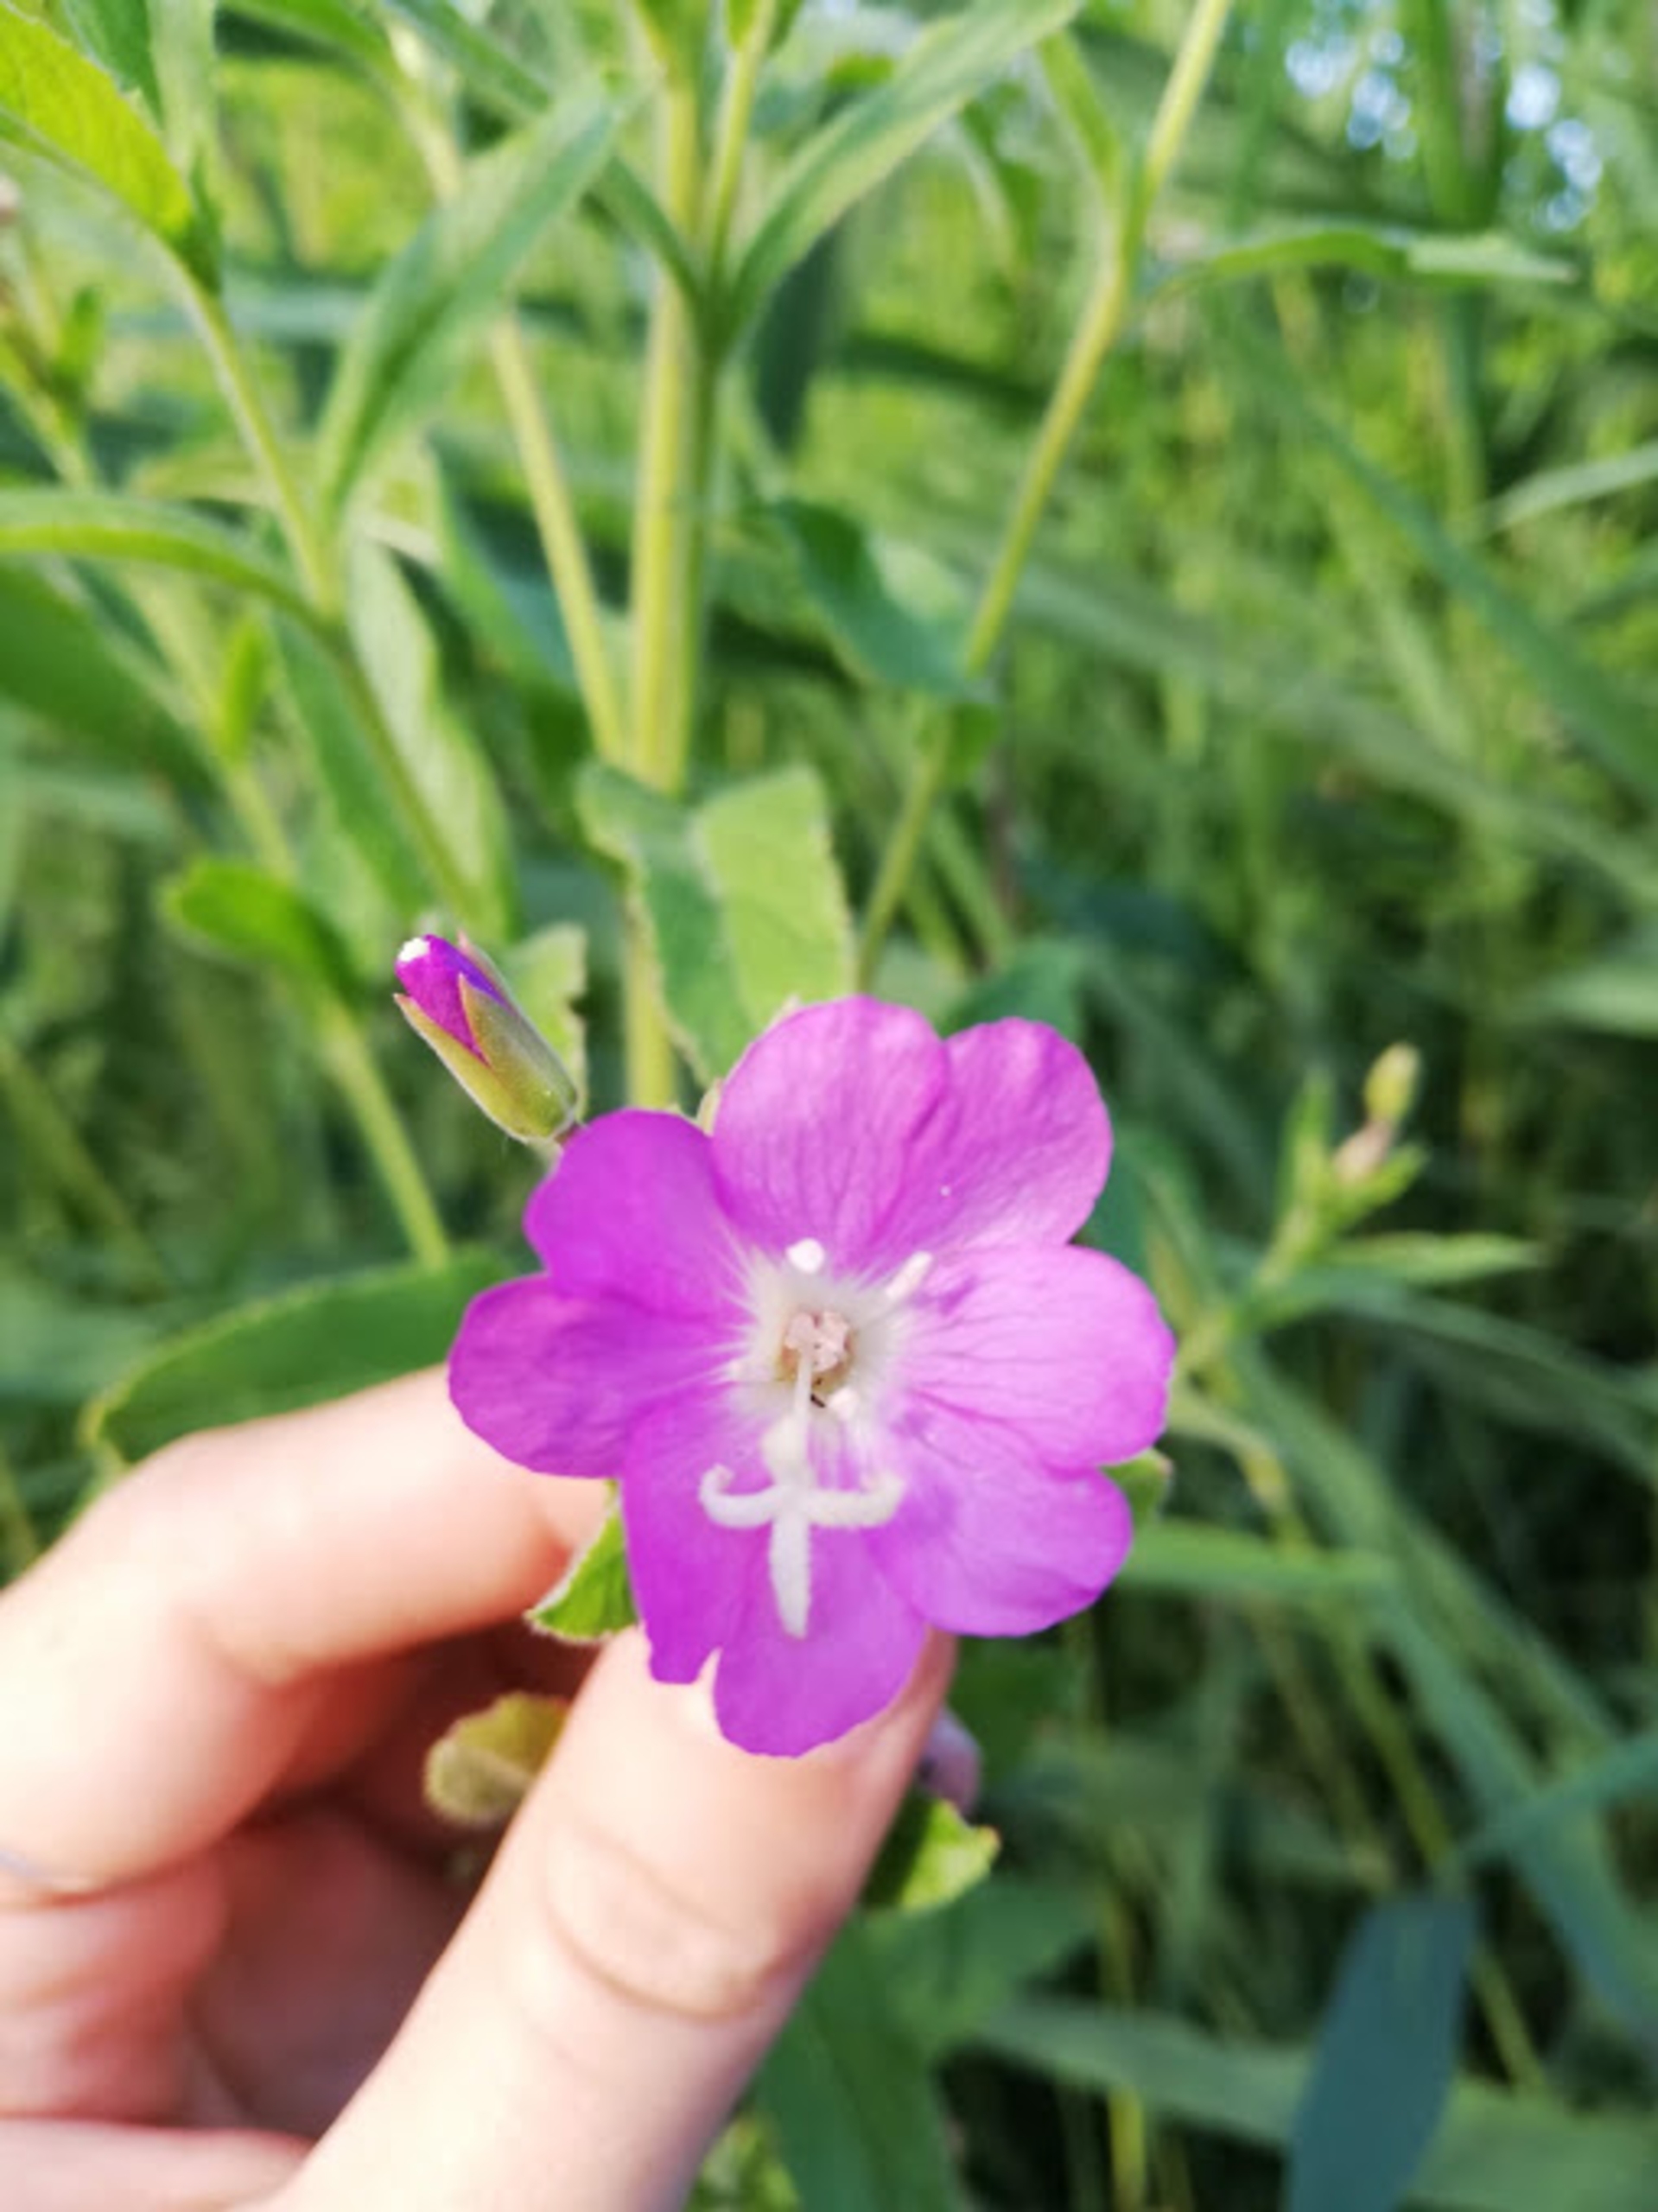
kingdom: Plantae
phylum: Tracheophyta
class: Magnoliopsida
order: Myrtales
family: Onagraceae
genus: Epilobium
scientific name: Epilobium hirsutum
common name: Lådden dueurt
